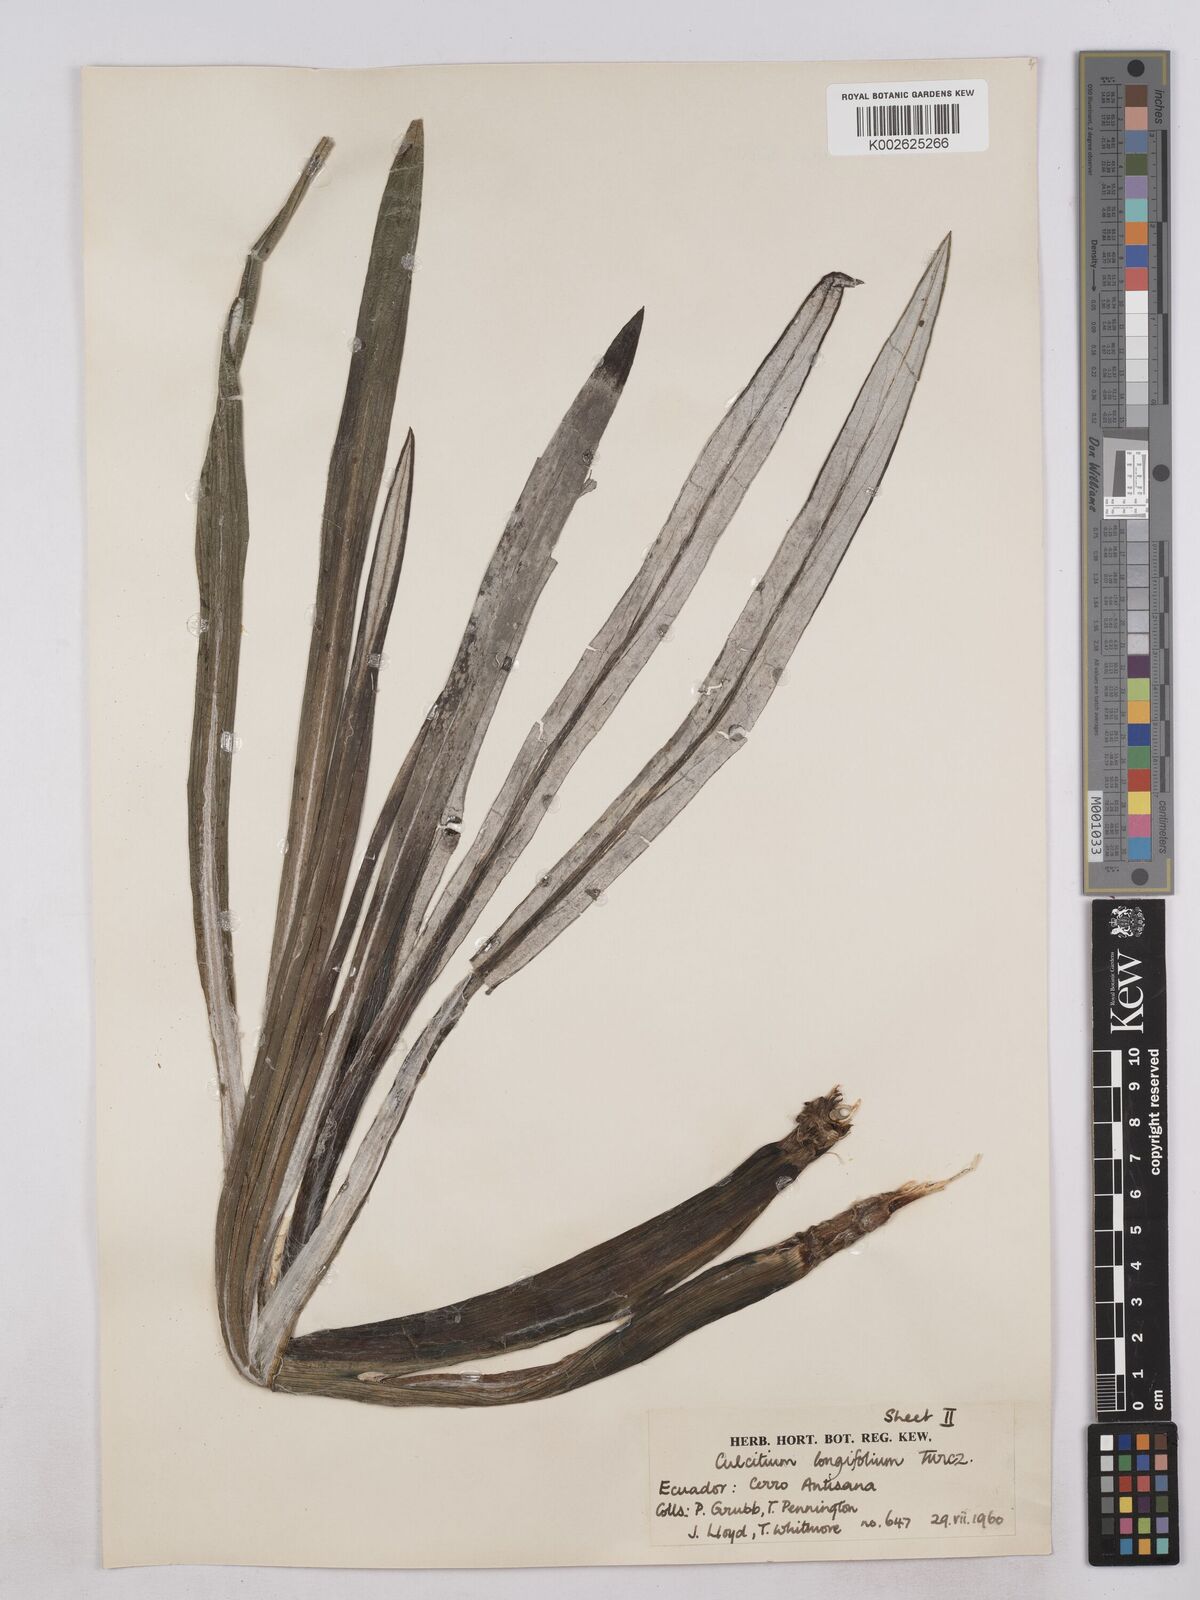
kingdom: Plantae
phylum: Tracheophyta
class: Magnoliopsida
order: Asterales
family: Asteraceae
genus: Senecio
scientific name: Senecio comosus
